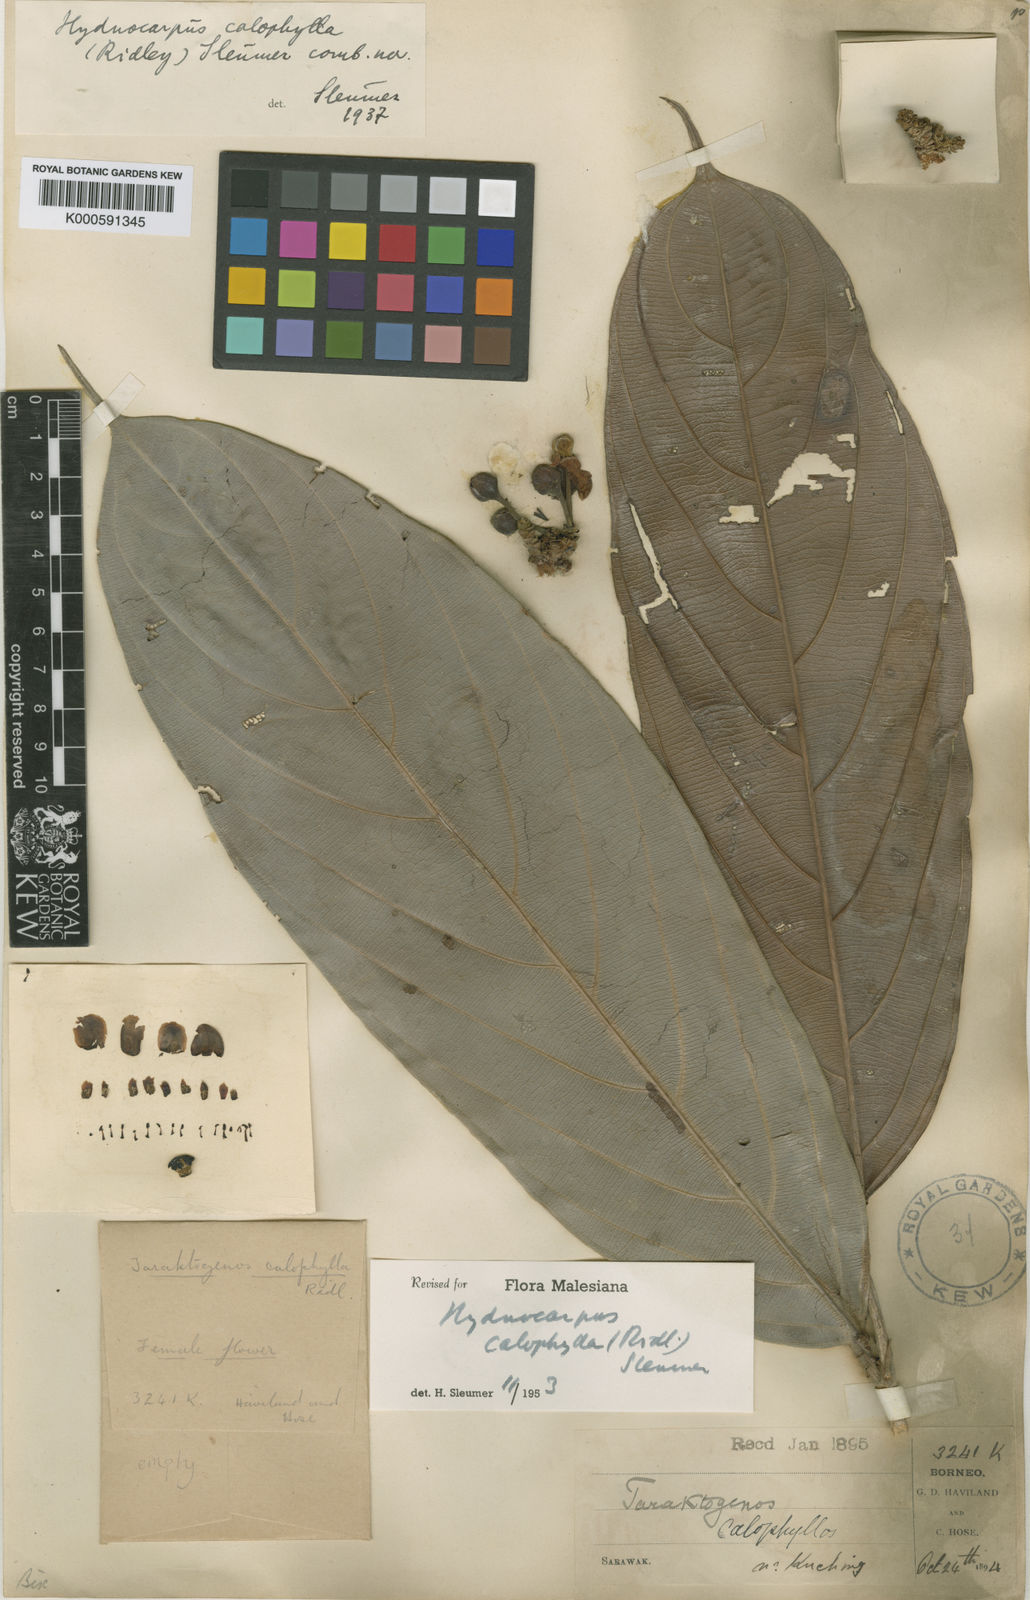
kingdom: Plantae
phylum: Tracheophyta
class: Magnoliopsida
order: Malpighiales
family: Achariaceae
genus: Hydnocarpus
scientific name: Hydnocarpus calophyllus
